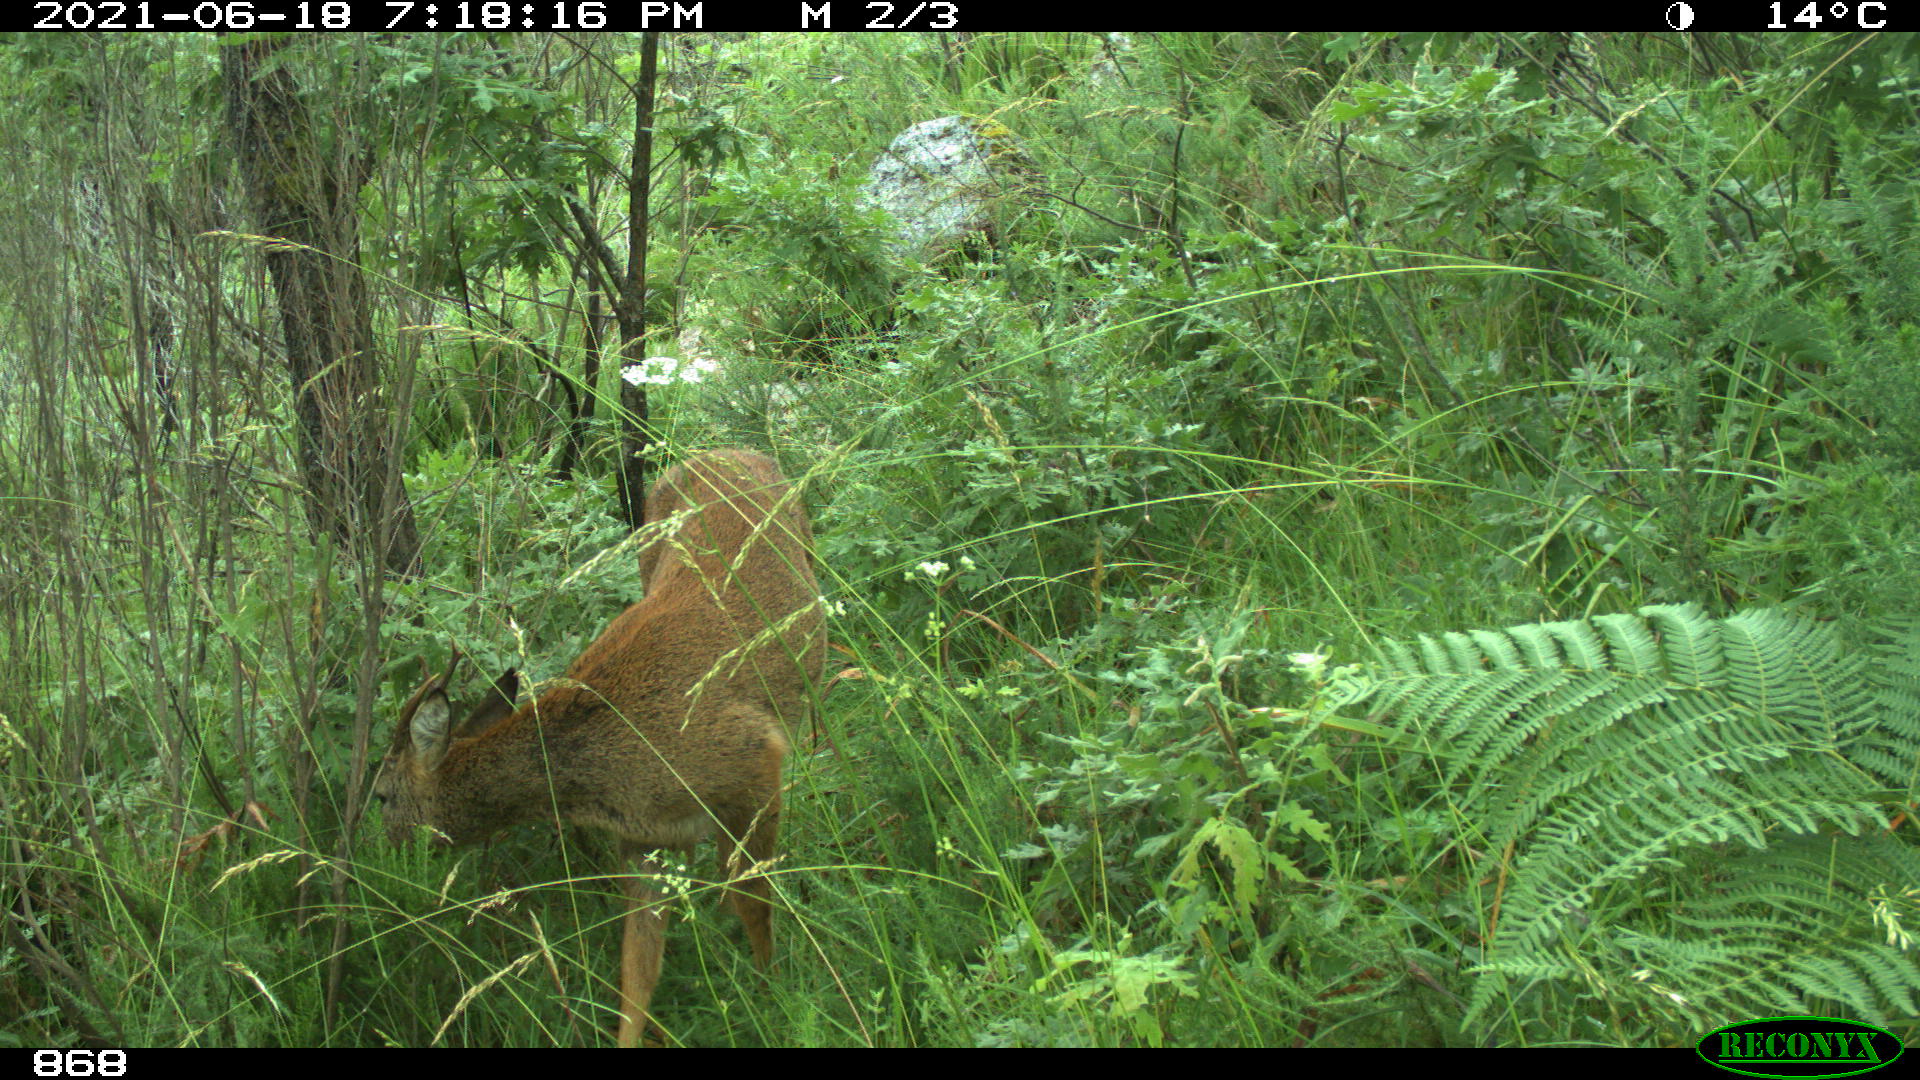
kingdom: Animalia
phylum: Chordata
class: Mammalia
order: Artiodactyla
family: Cervidae
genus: Capreolus
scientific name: Capreolus capreolus
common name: Western roe deer
